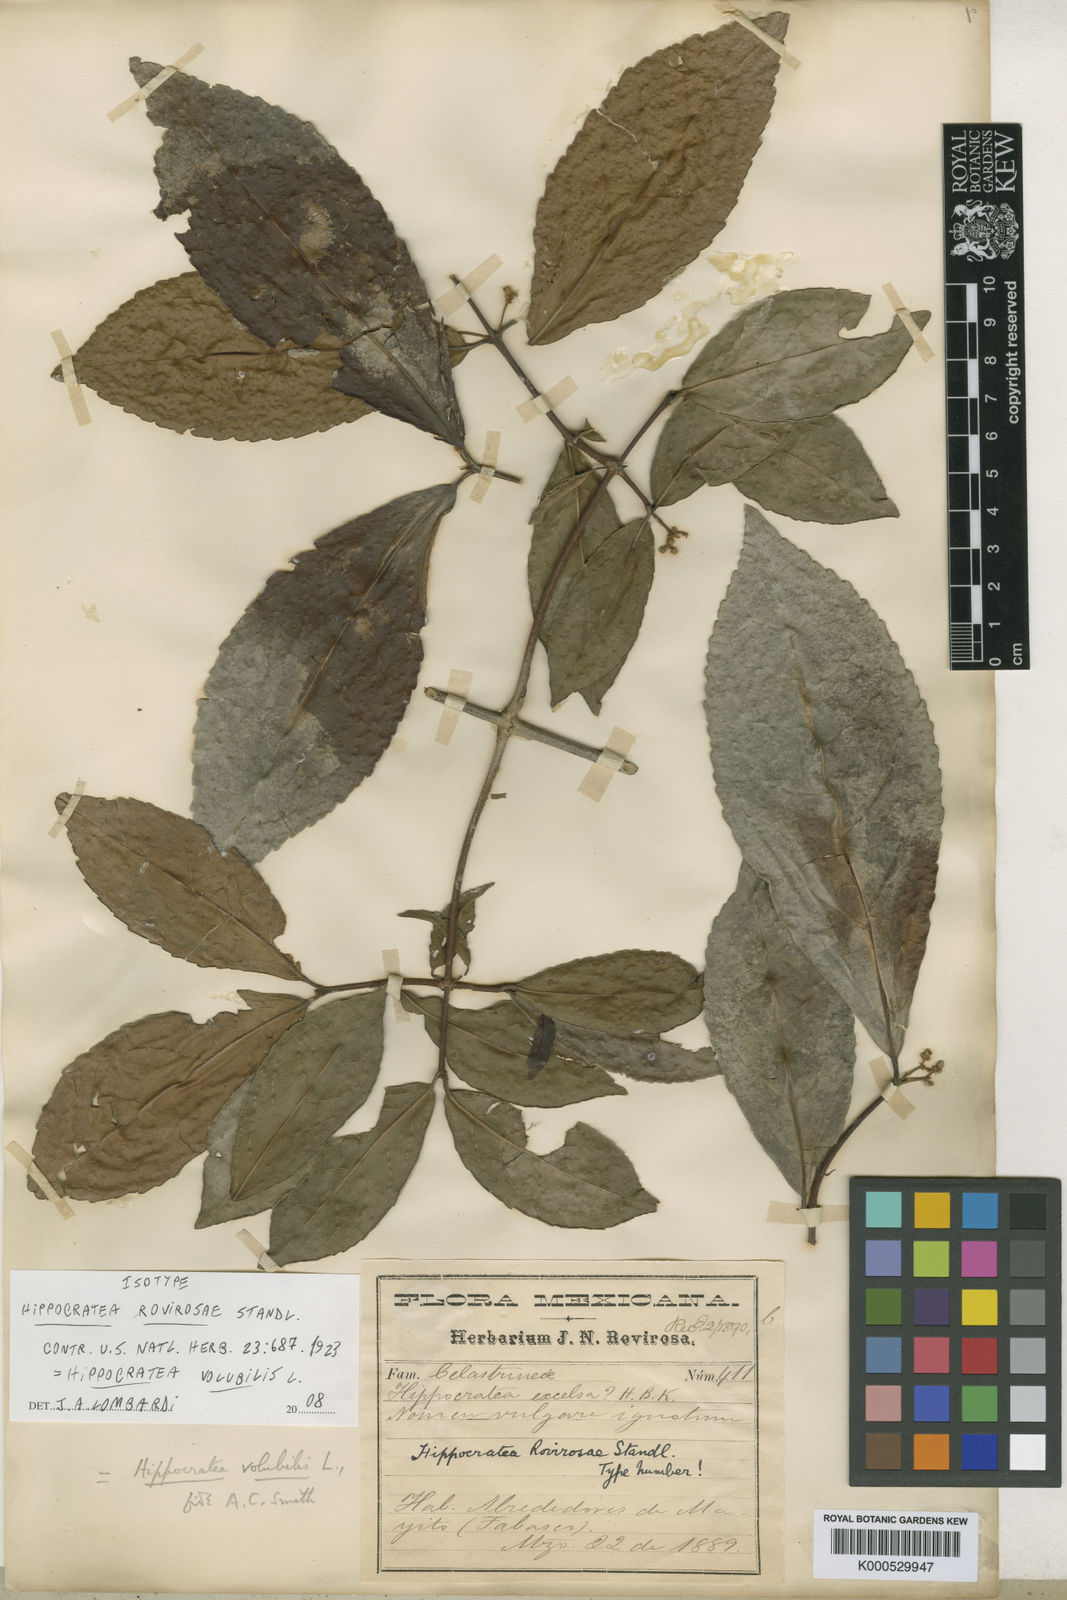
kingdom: Plantae
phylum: Tracheophyta
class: Magnoliopsida
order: Celastrales
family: Celastraceae
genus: Hippocratea
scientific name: Hippocratea volubilis
